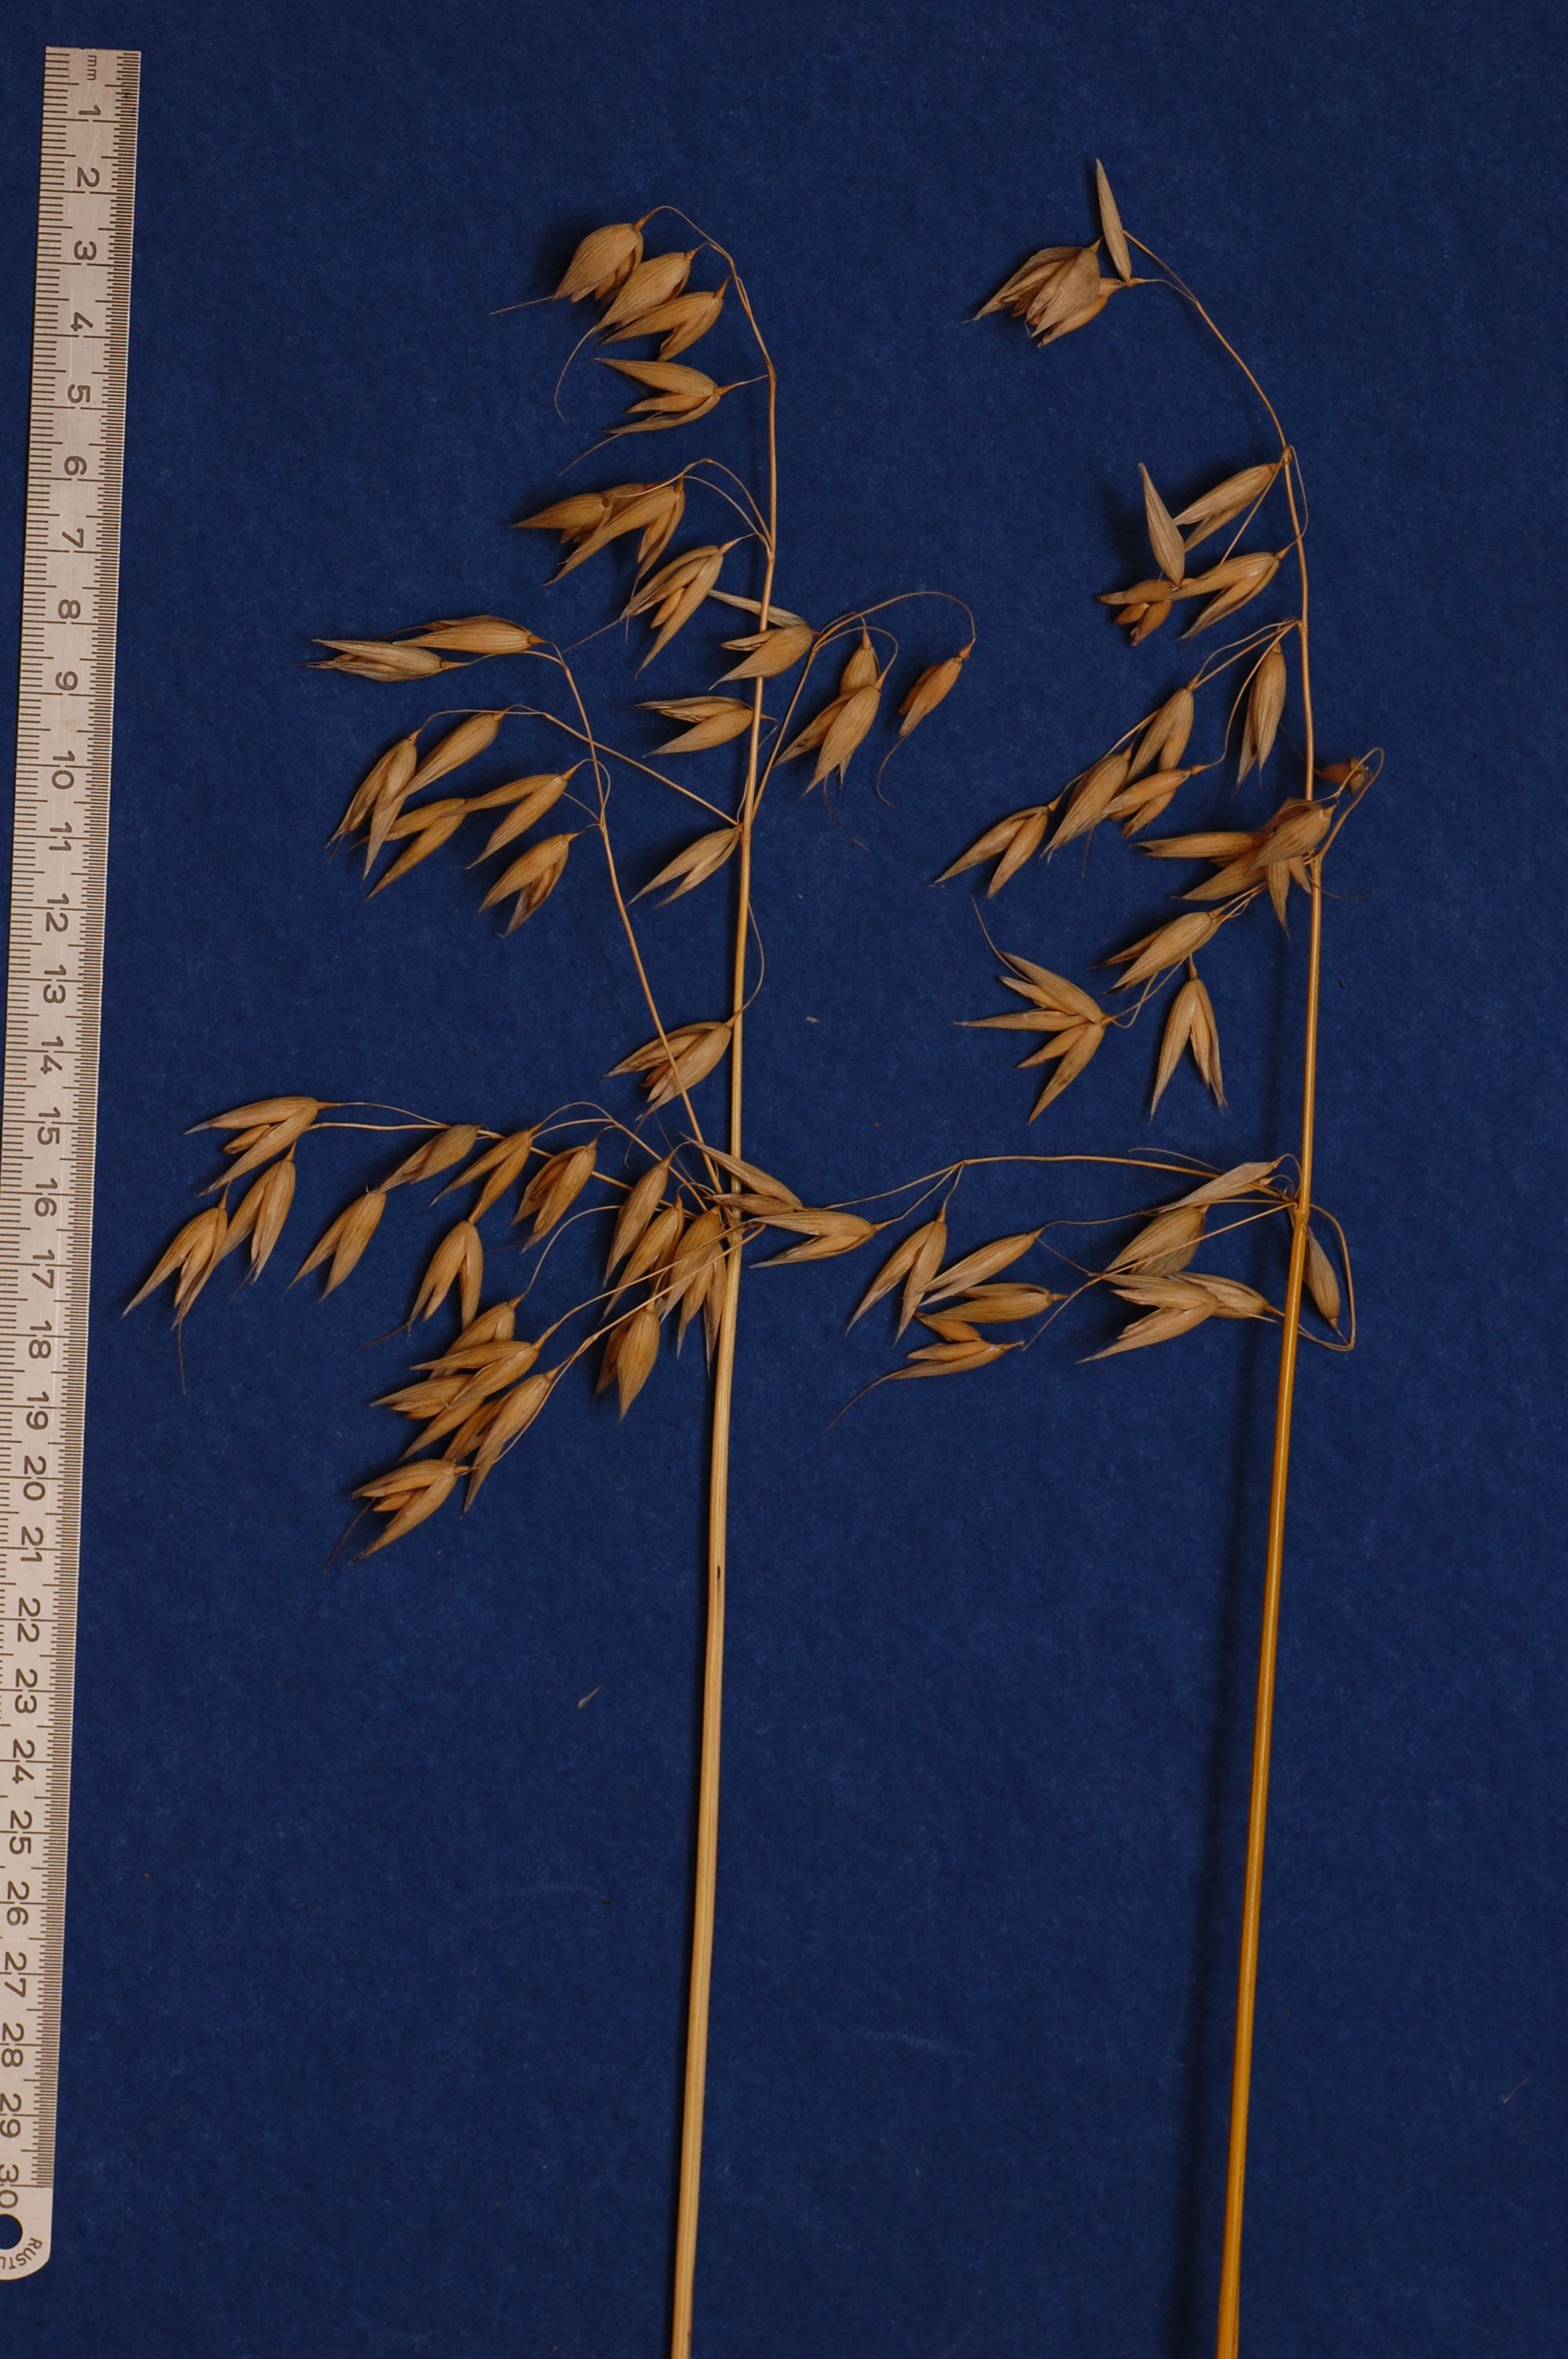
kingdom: Plantae
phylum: Tracheophyta
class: Liliopsida
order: Poales
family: Poaceae
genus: Avena
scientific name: Avena sativa
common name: Oat
